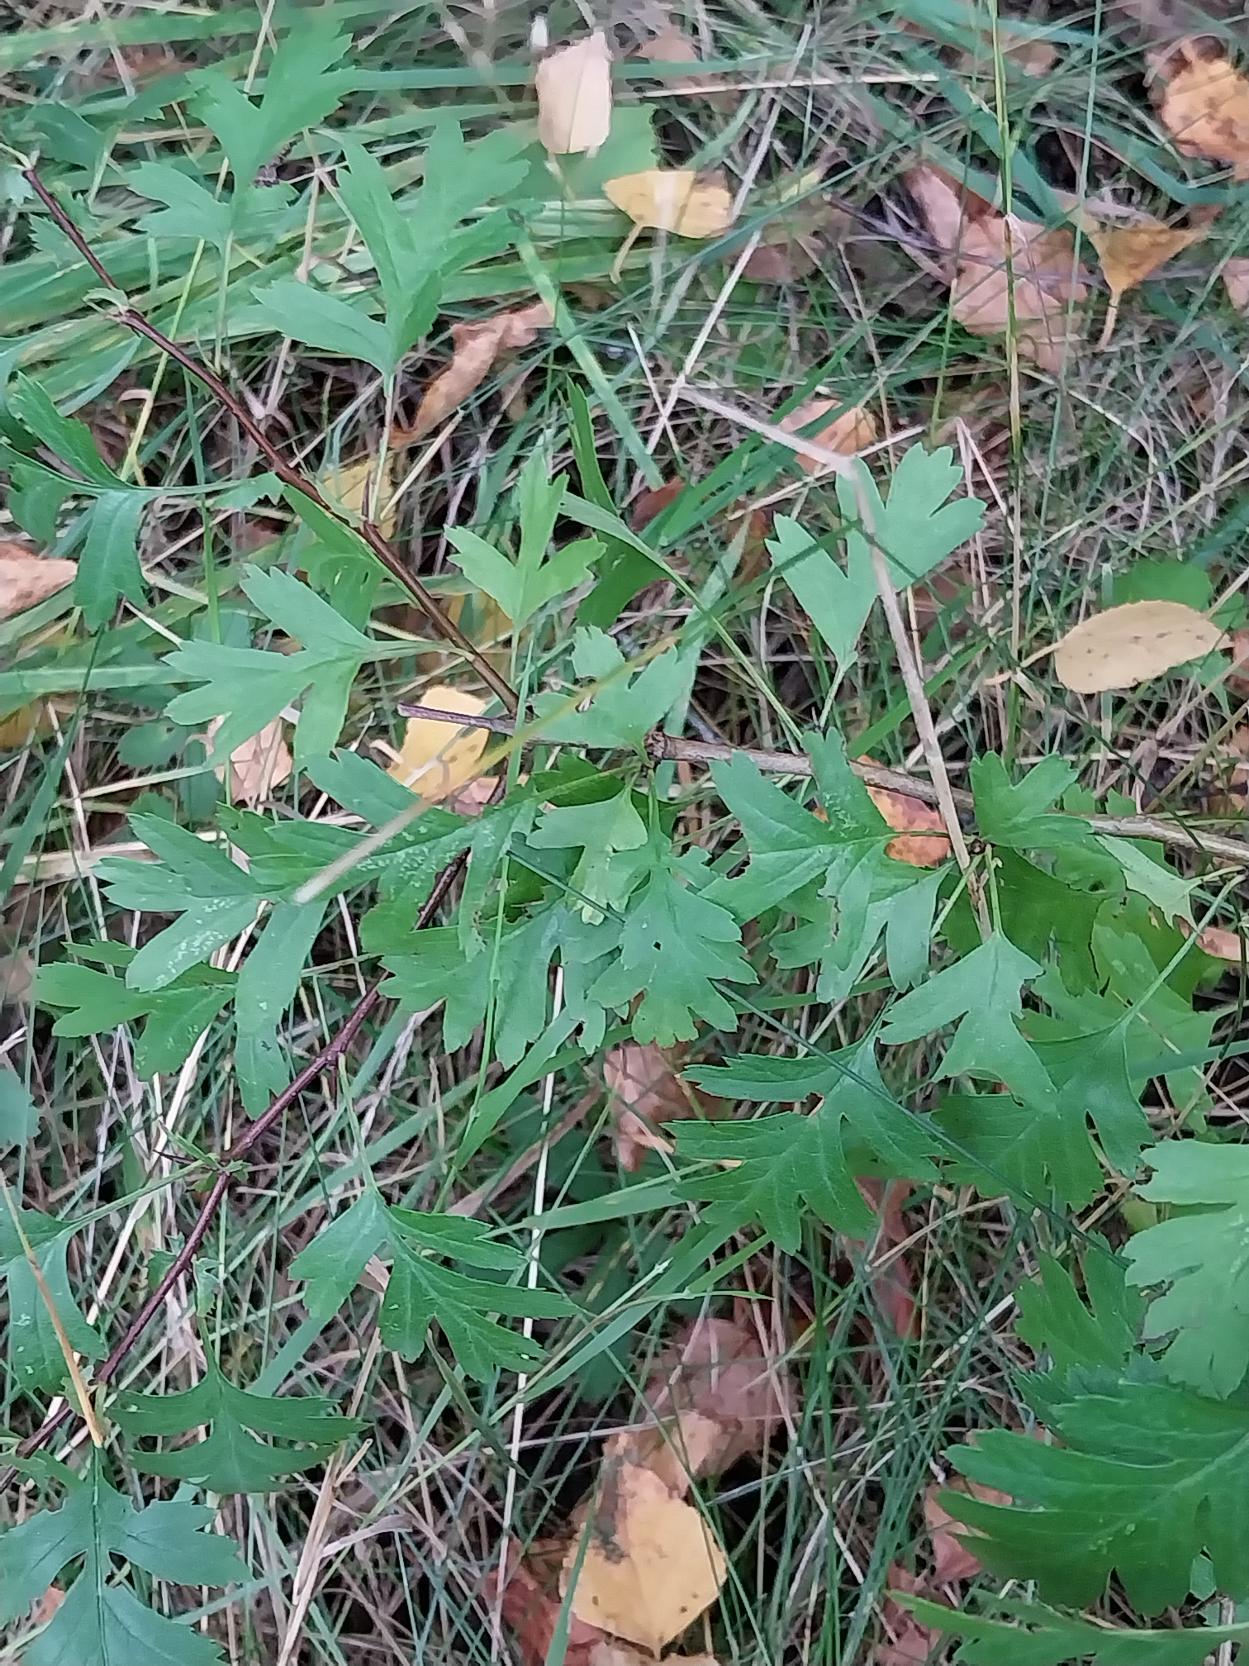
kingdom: Plantae
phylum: Tracheophyta
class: Magnoliopsida
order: Rosales
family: Rosaceae
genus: Crataegus
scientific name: Crataegus monogyna
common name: Engriflet hvidtjørn
